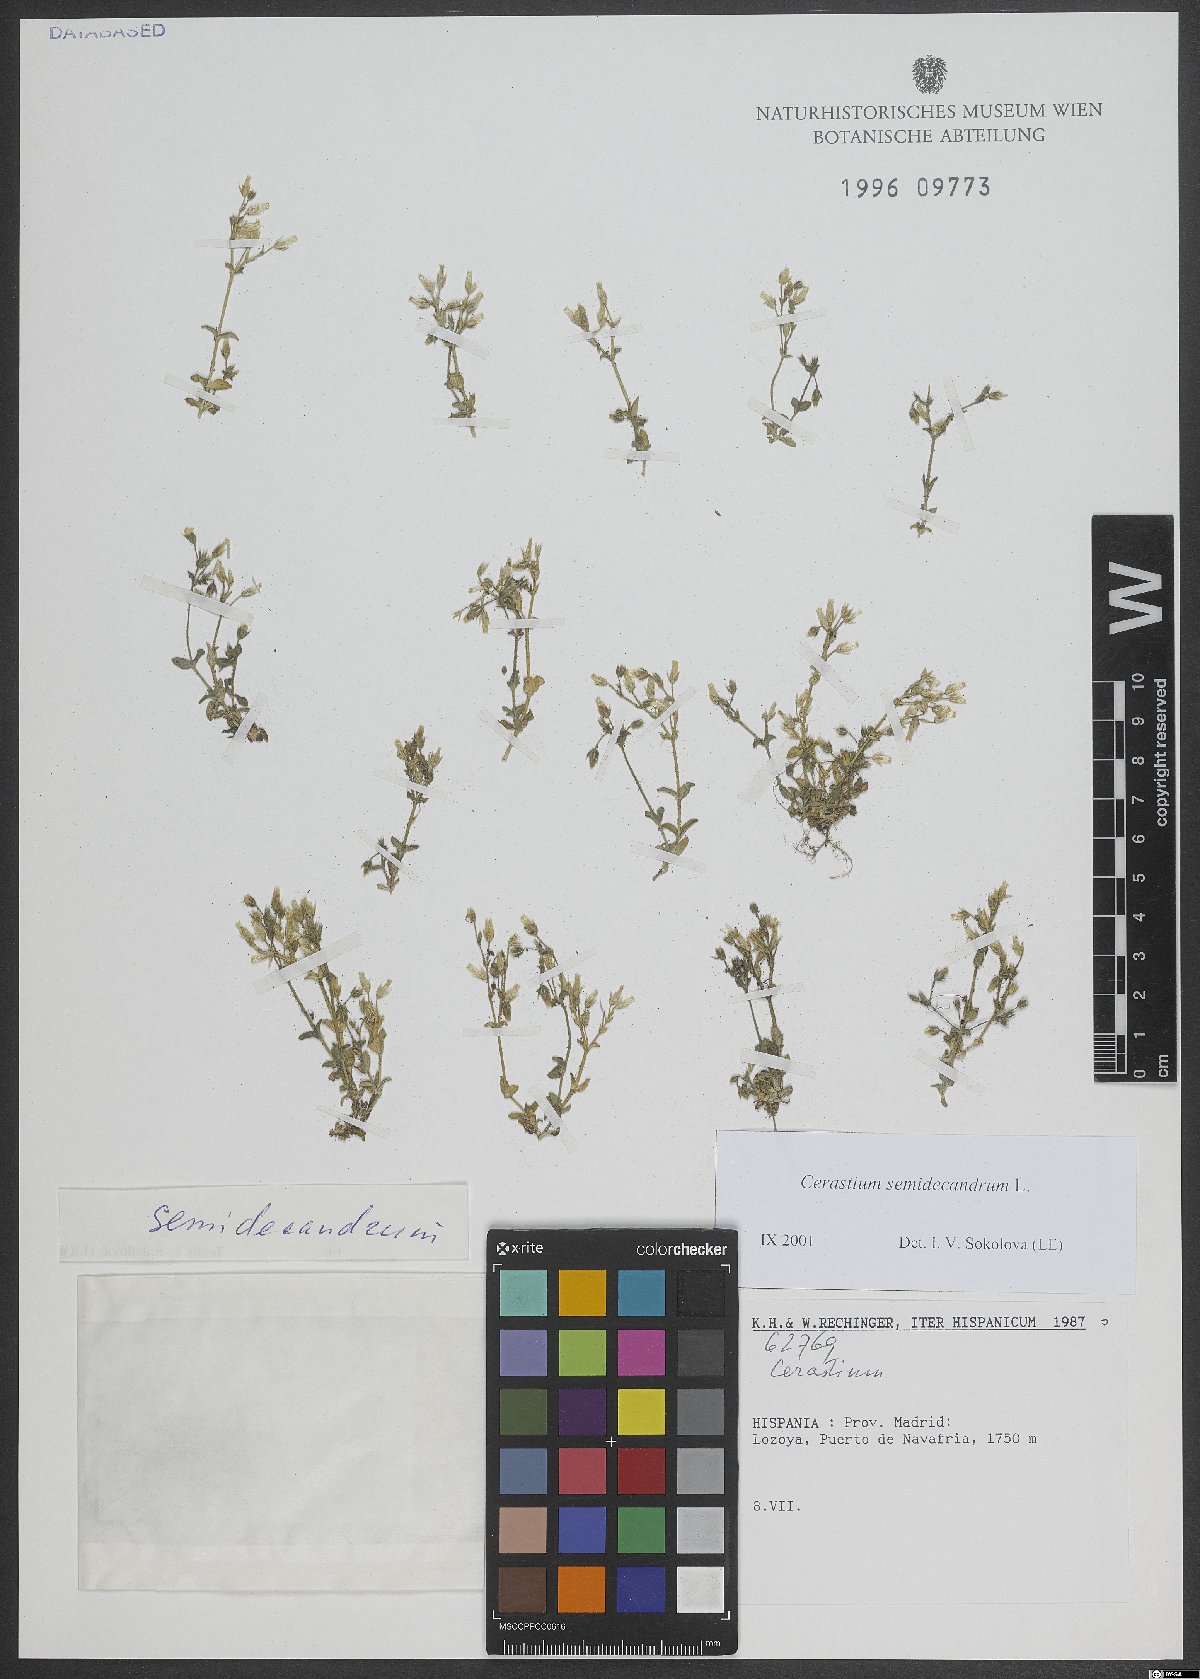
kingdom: Plantae
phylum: Tracheophyta
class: Magnoliopsida
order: Caryophyllales
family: Caryophyllaceae
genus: Cerastium
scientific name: Cerastium semidecandrum
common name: Little mouse-ear
